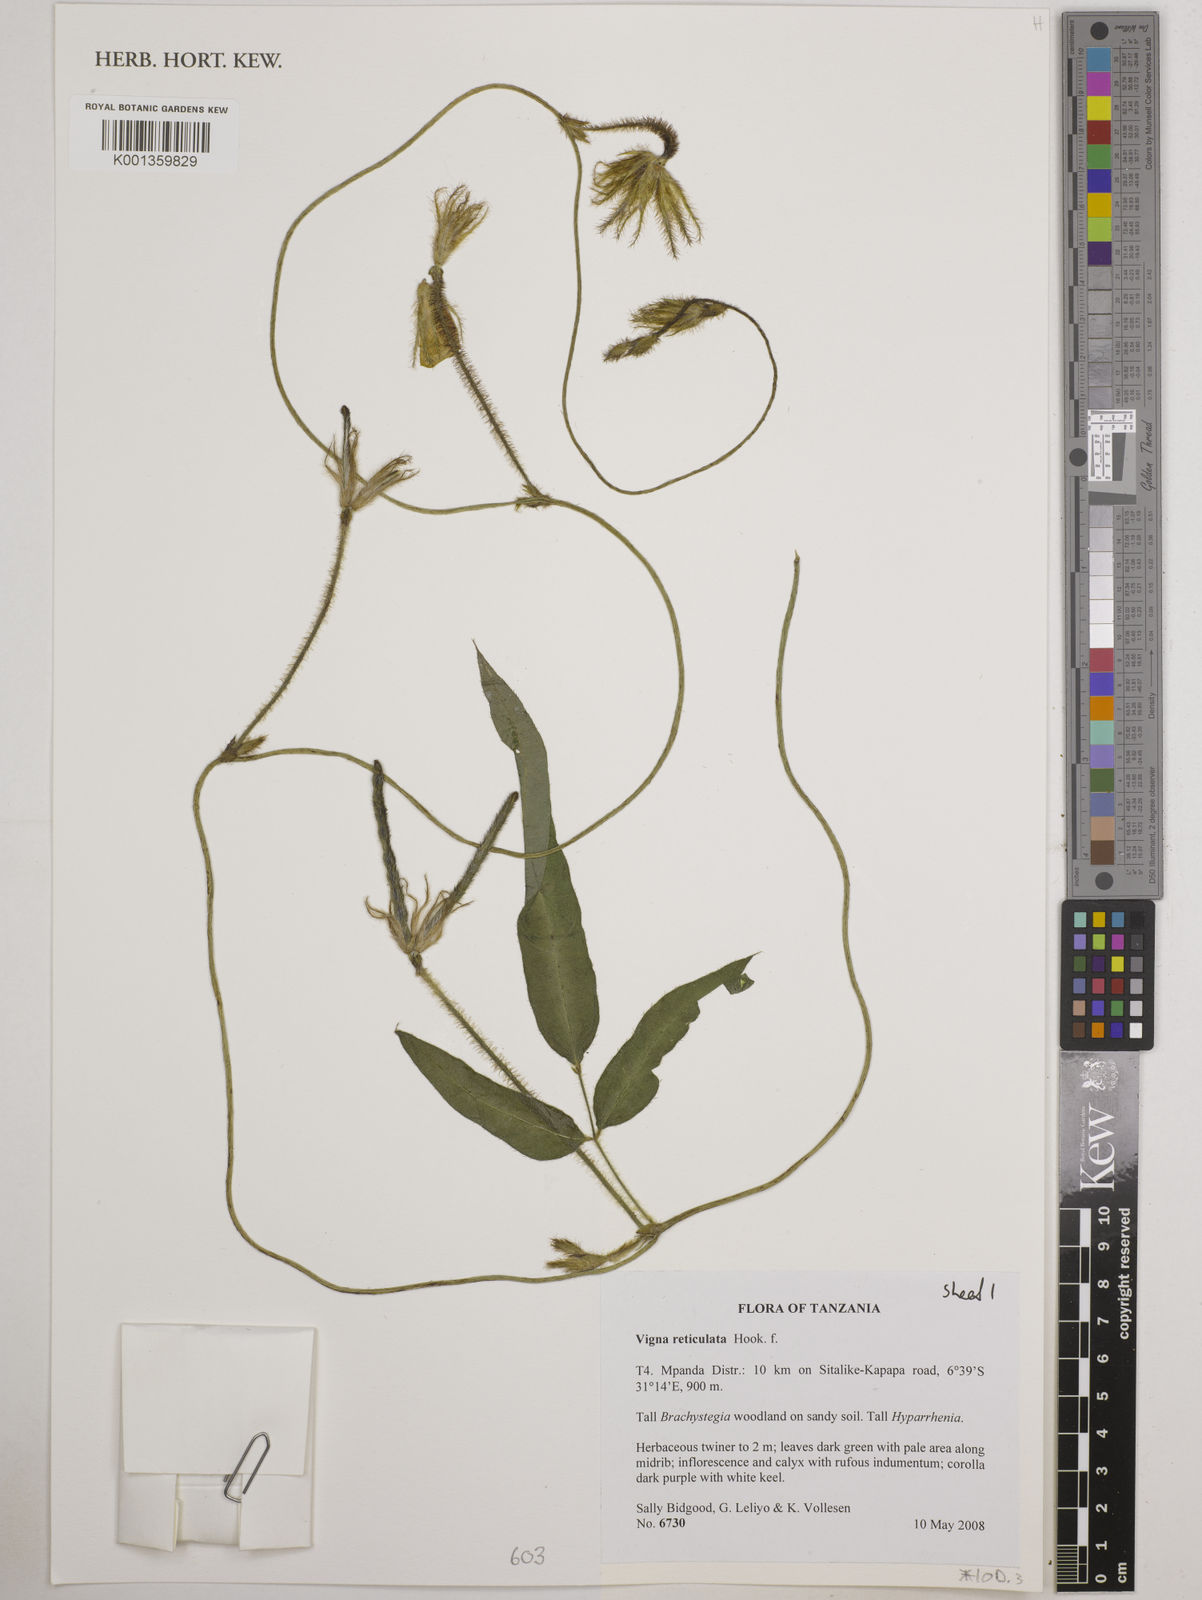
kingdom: Plantae
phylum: Tracheophyta
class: Magnoliopsida
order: Fabales
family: Fabaceae
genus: Vigna
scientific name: Vigna reticulata
